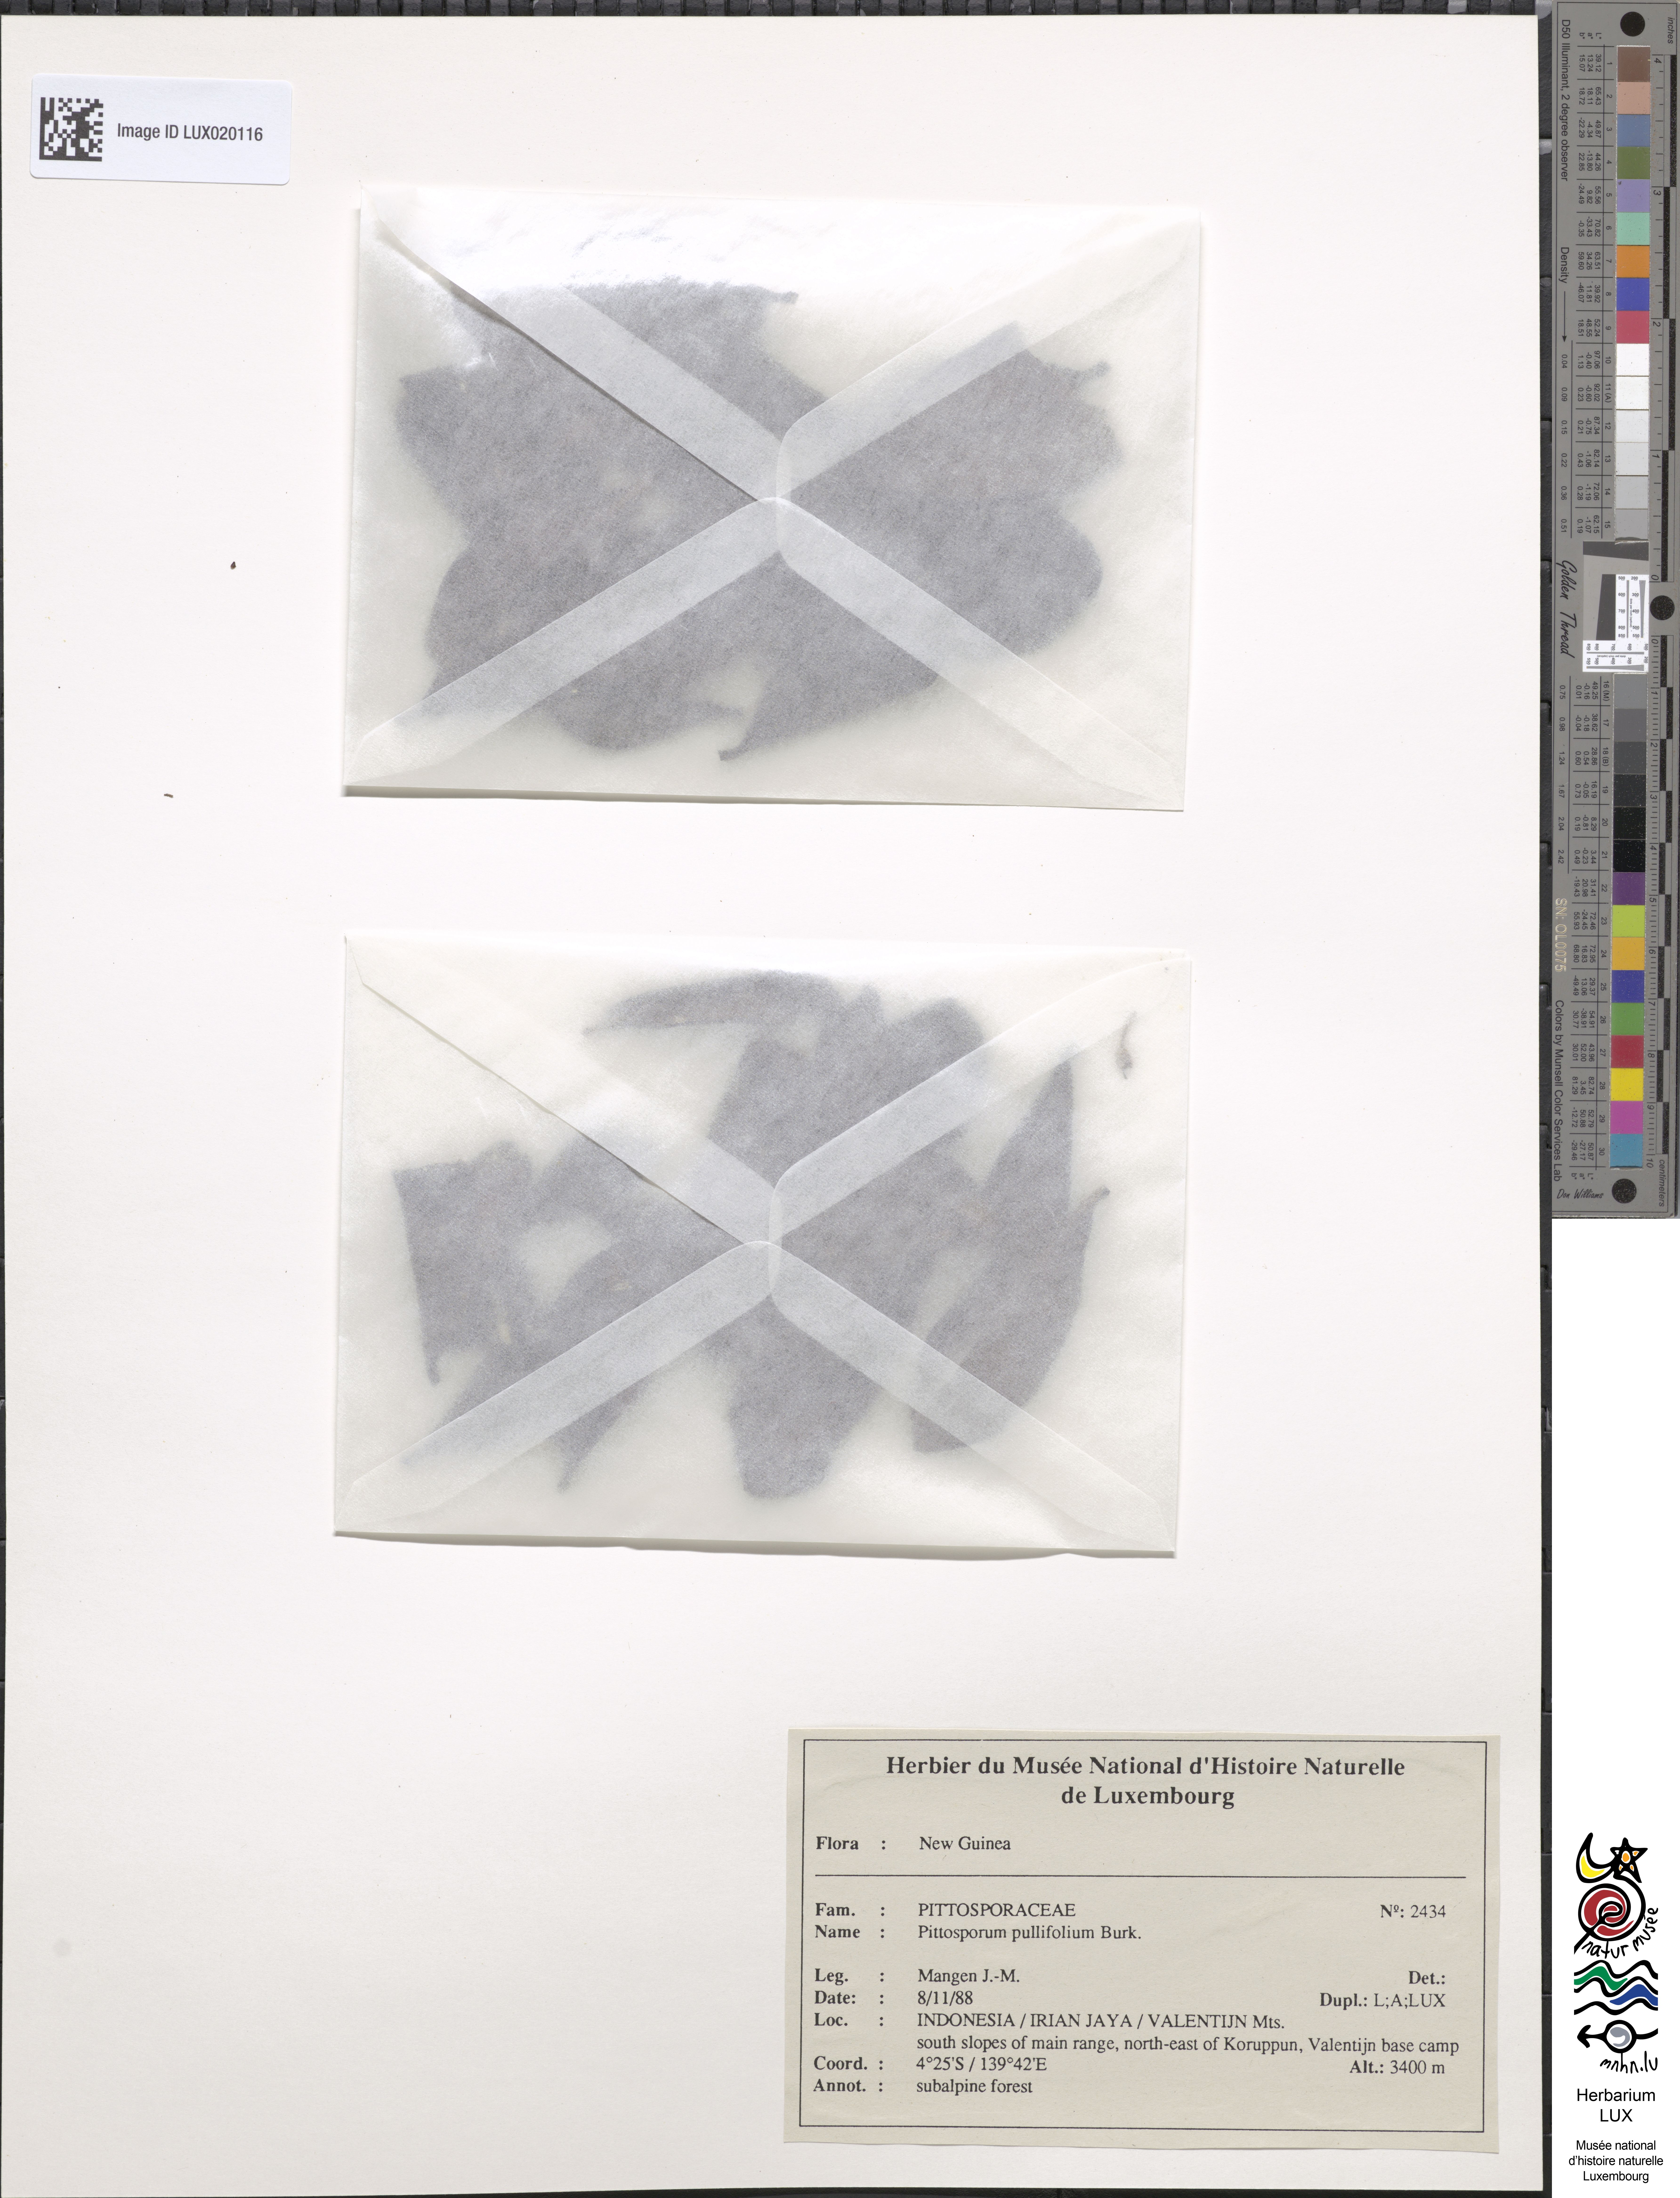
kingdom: Plantae
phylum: Tracheophyta
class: Magnoliopsida
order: Apiales
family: Pittosporaceae
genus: Pittosporum
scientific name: Pittosporum pullifolium
